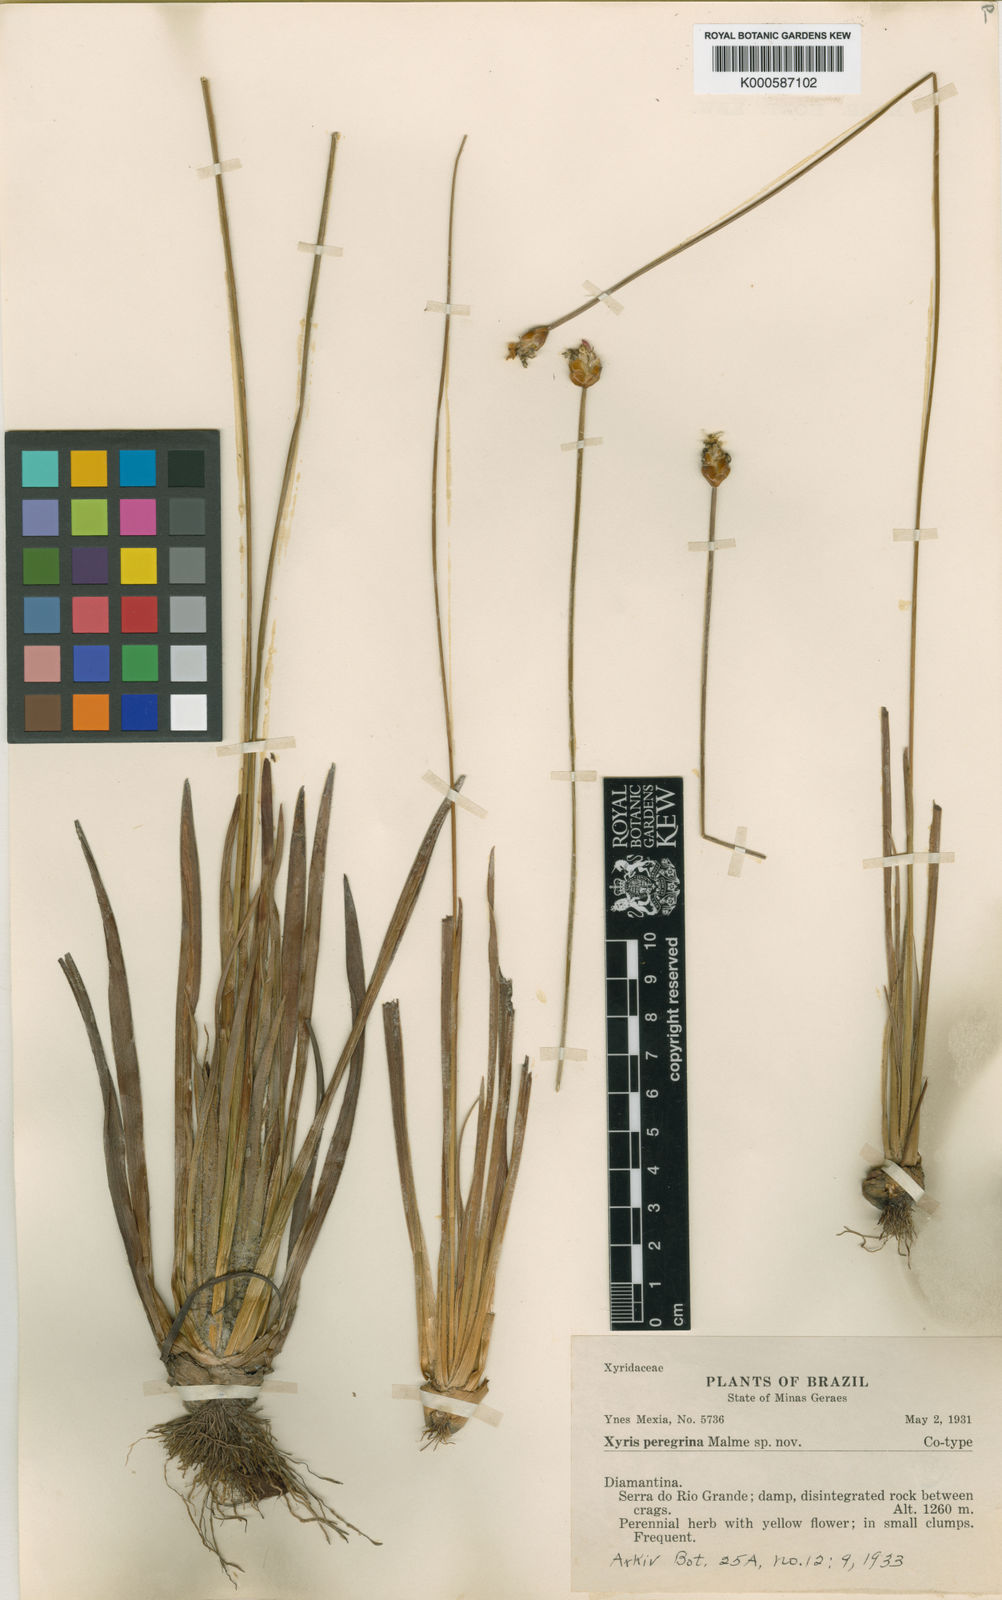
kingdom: Plantae
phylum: Tracheophyta
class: Liliopsida
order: Poales
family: Xyridaceae
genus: Xyris
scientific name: Xyris pterygoblephara
